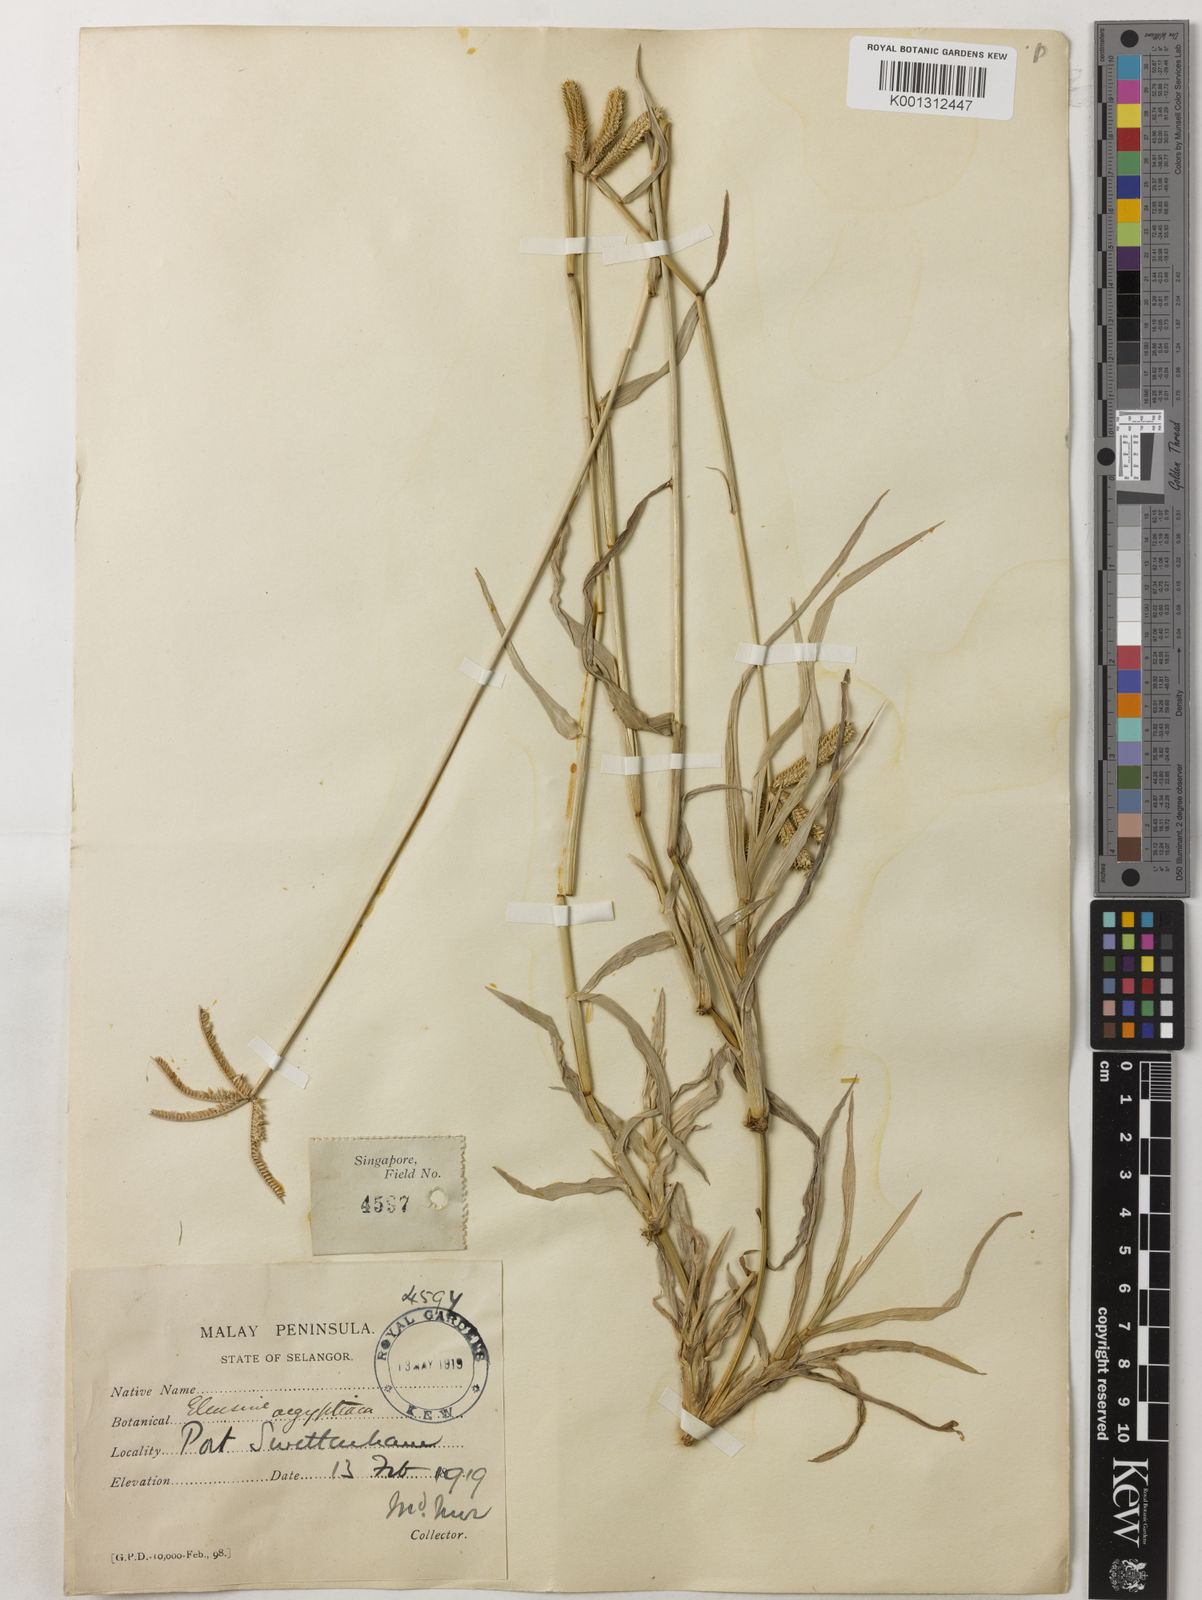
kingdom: Plantae
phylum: Tracheophyta
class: Liliopsida
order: Poales
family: Poaceae
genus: Dactyloctenium
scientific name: Dactyloctenium aegyptium
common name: Egyptian grass
